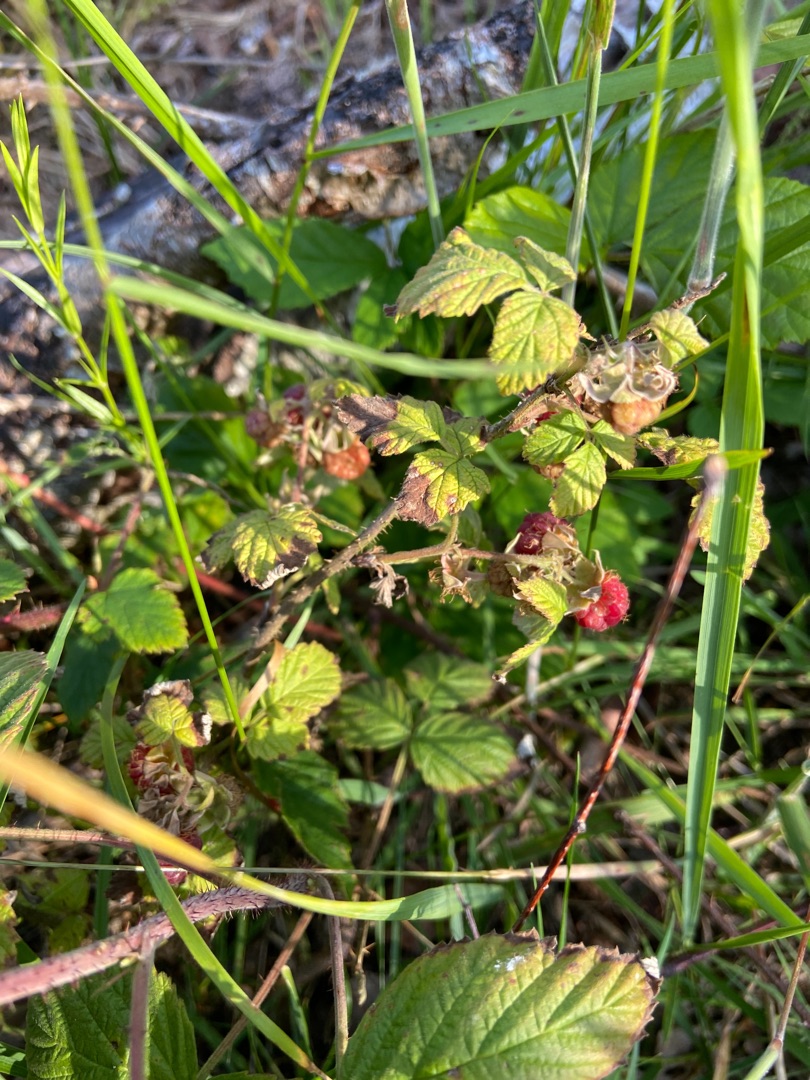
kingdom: Plantae
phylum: Tracheophyta
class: Magnoliopsida
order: Rosales
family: Rosaceae
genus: Rubus
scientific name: Rubus idaeus
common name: Hindbær
